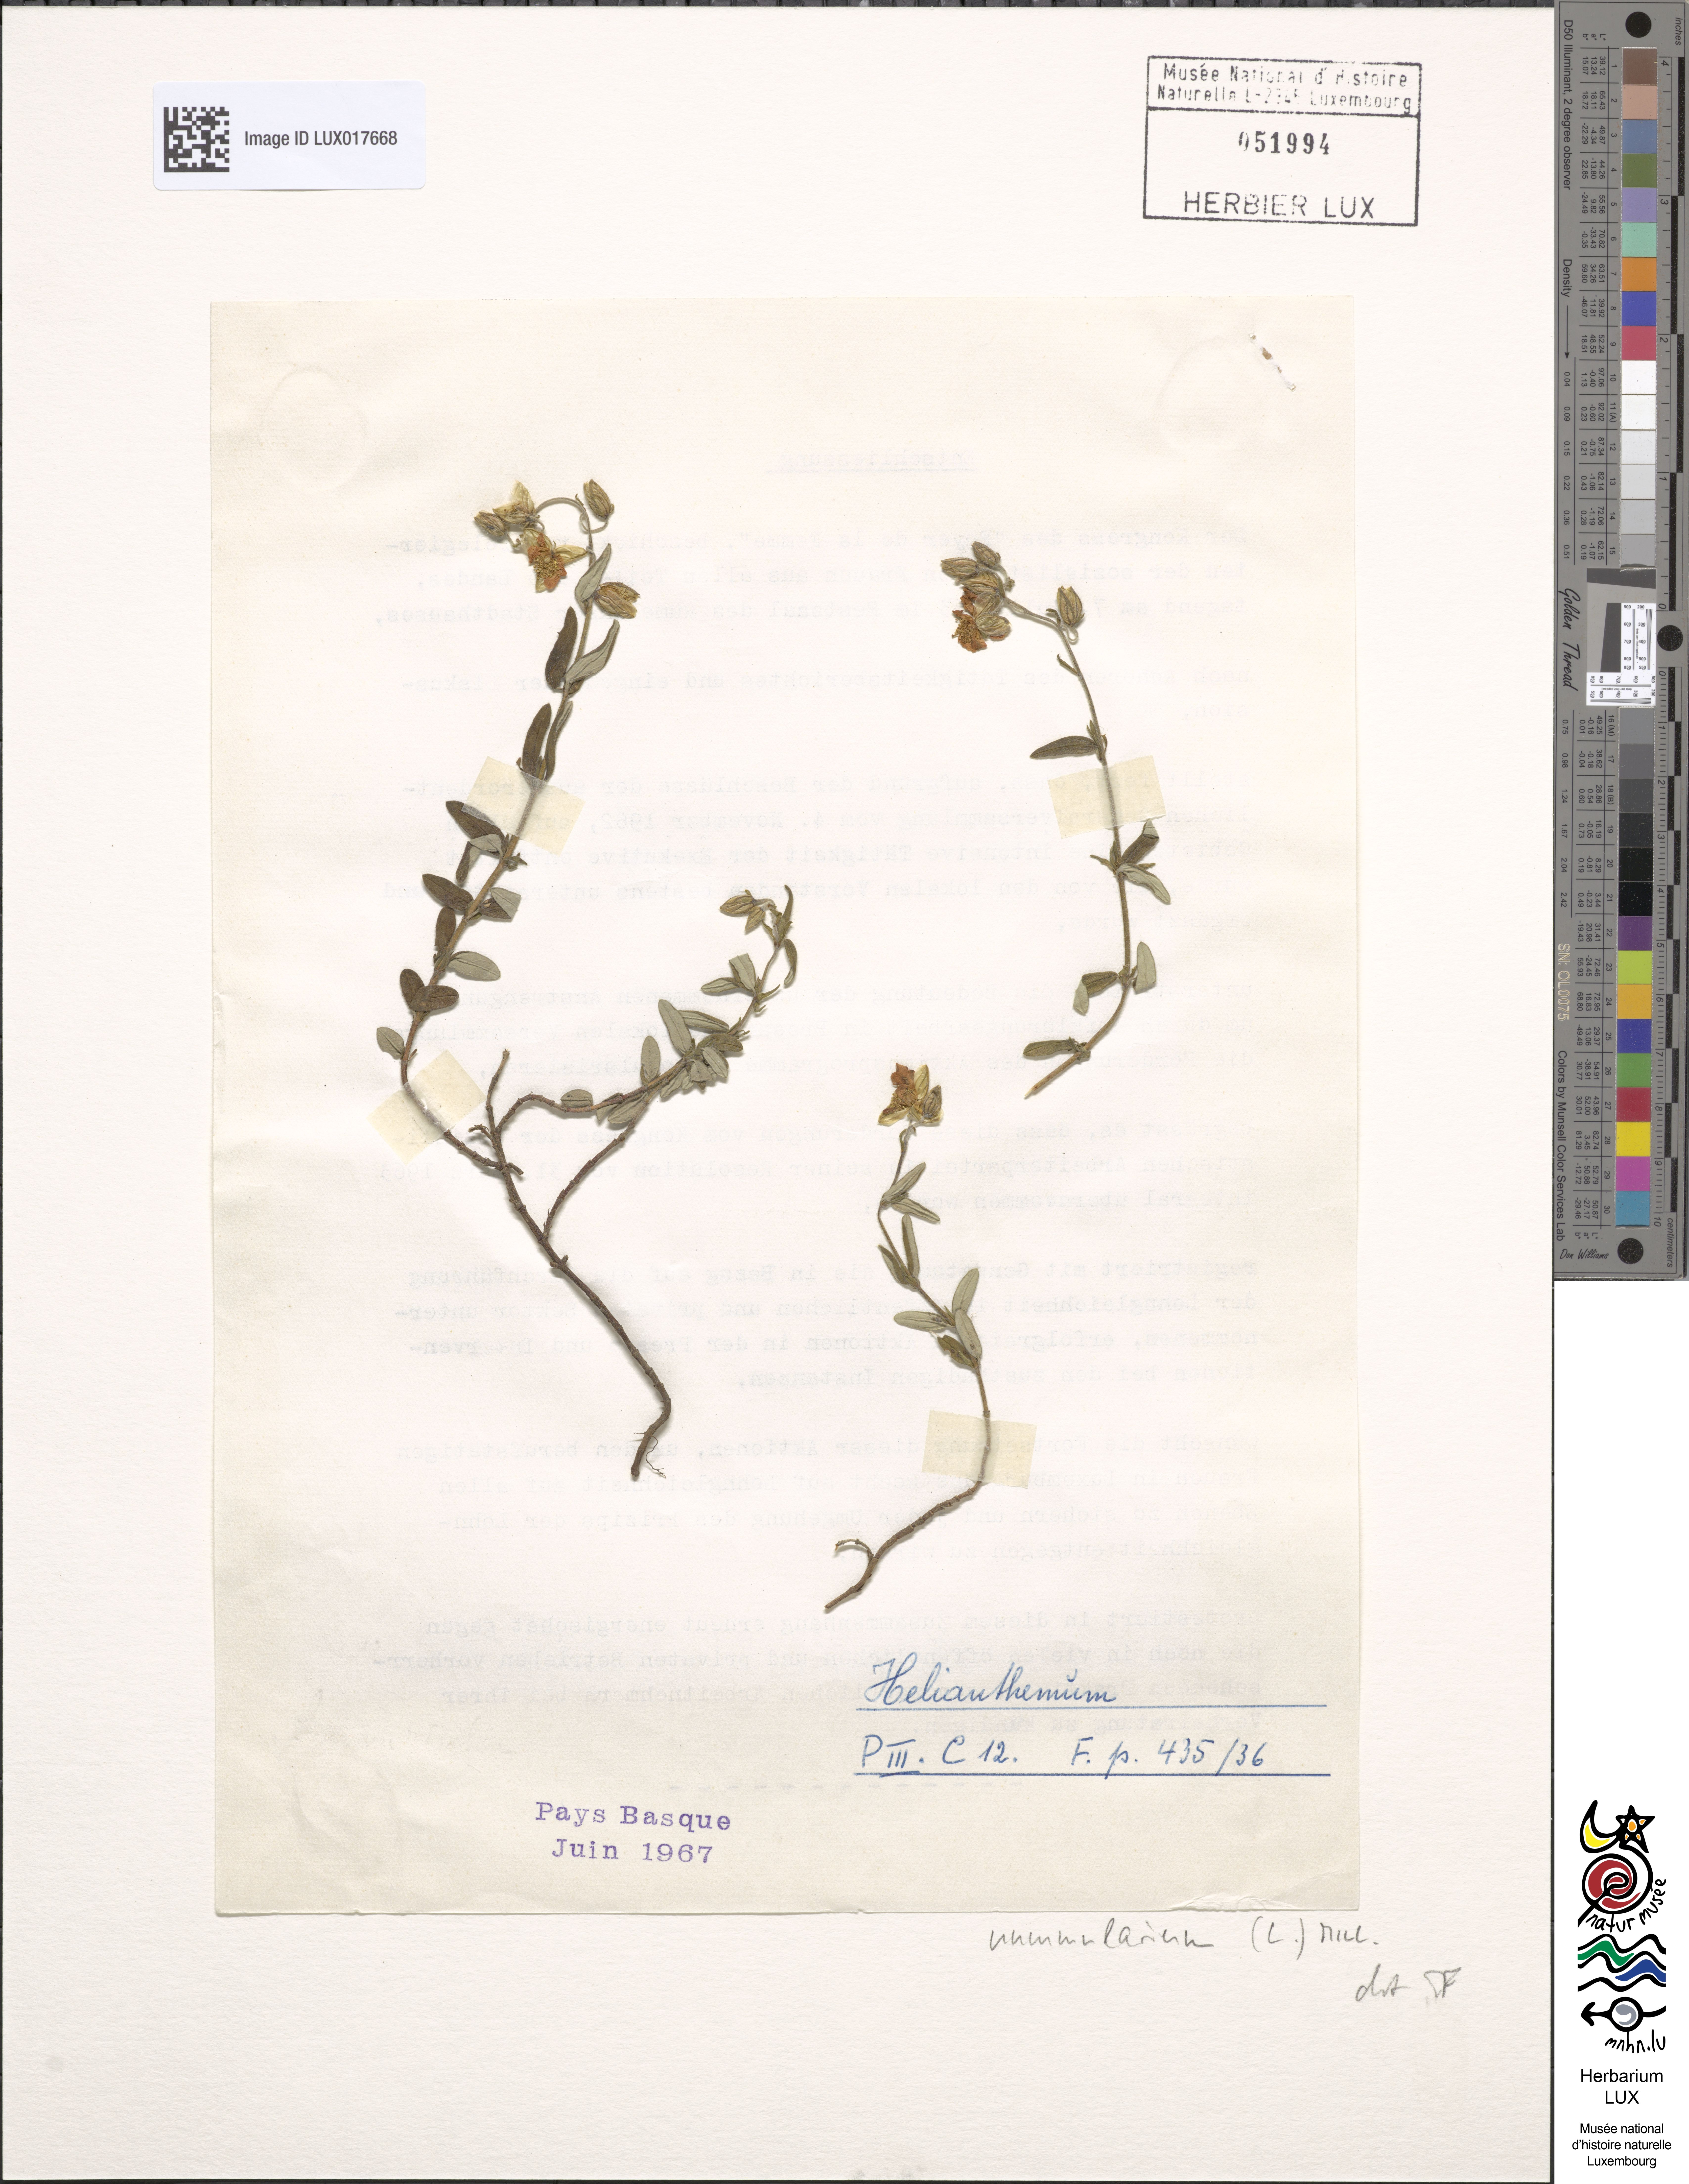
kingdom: Plantae
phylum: Tracheophyta
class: Magnoliopsida
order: Malvales
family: Cistaceae
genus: Helianthemum
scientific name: Helianthemum nummularium
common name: Common rock-rose
